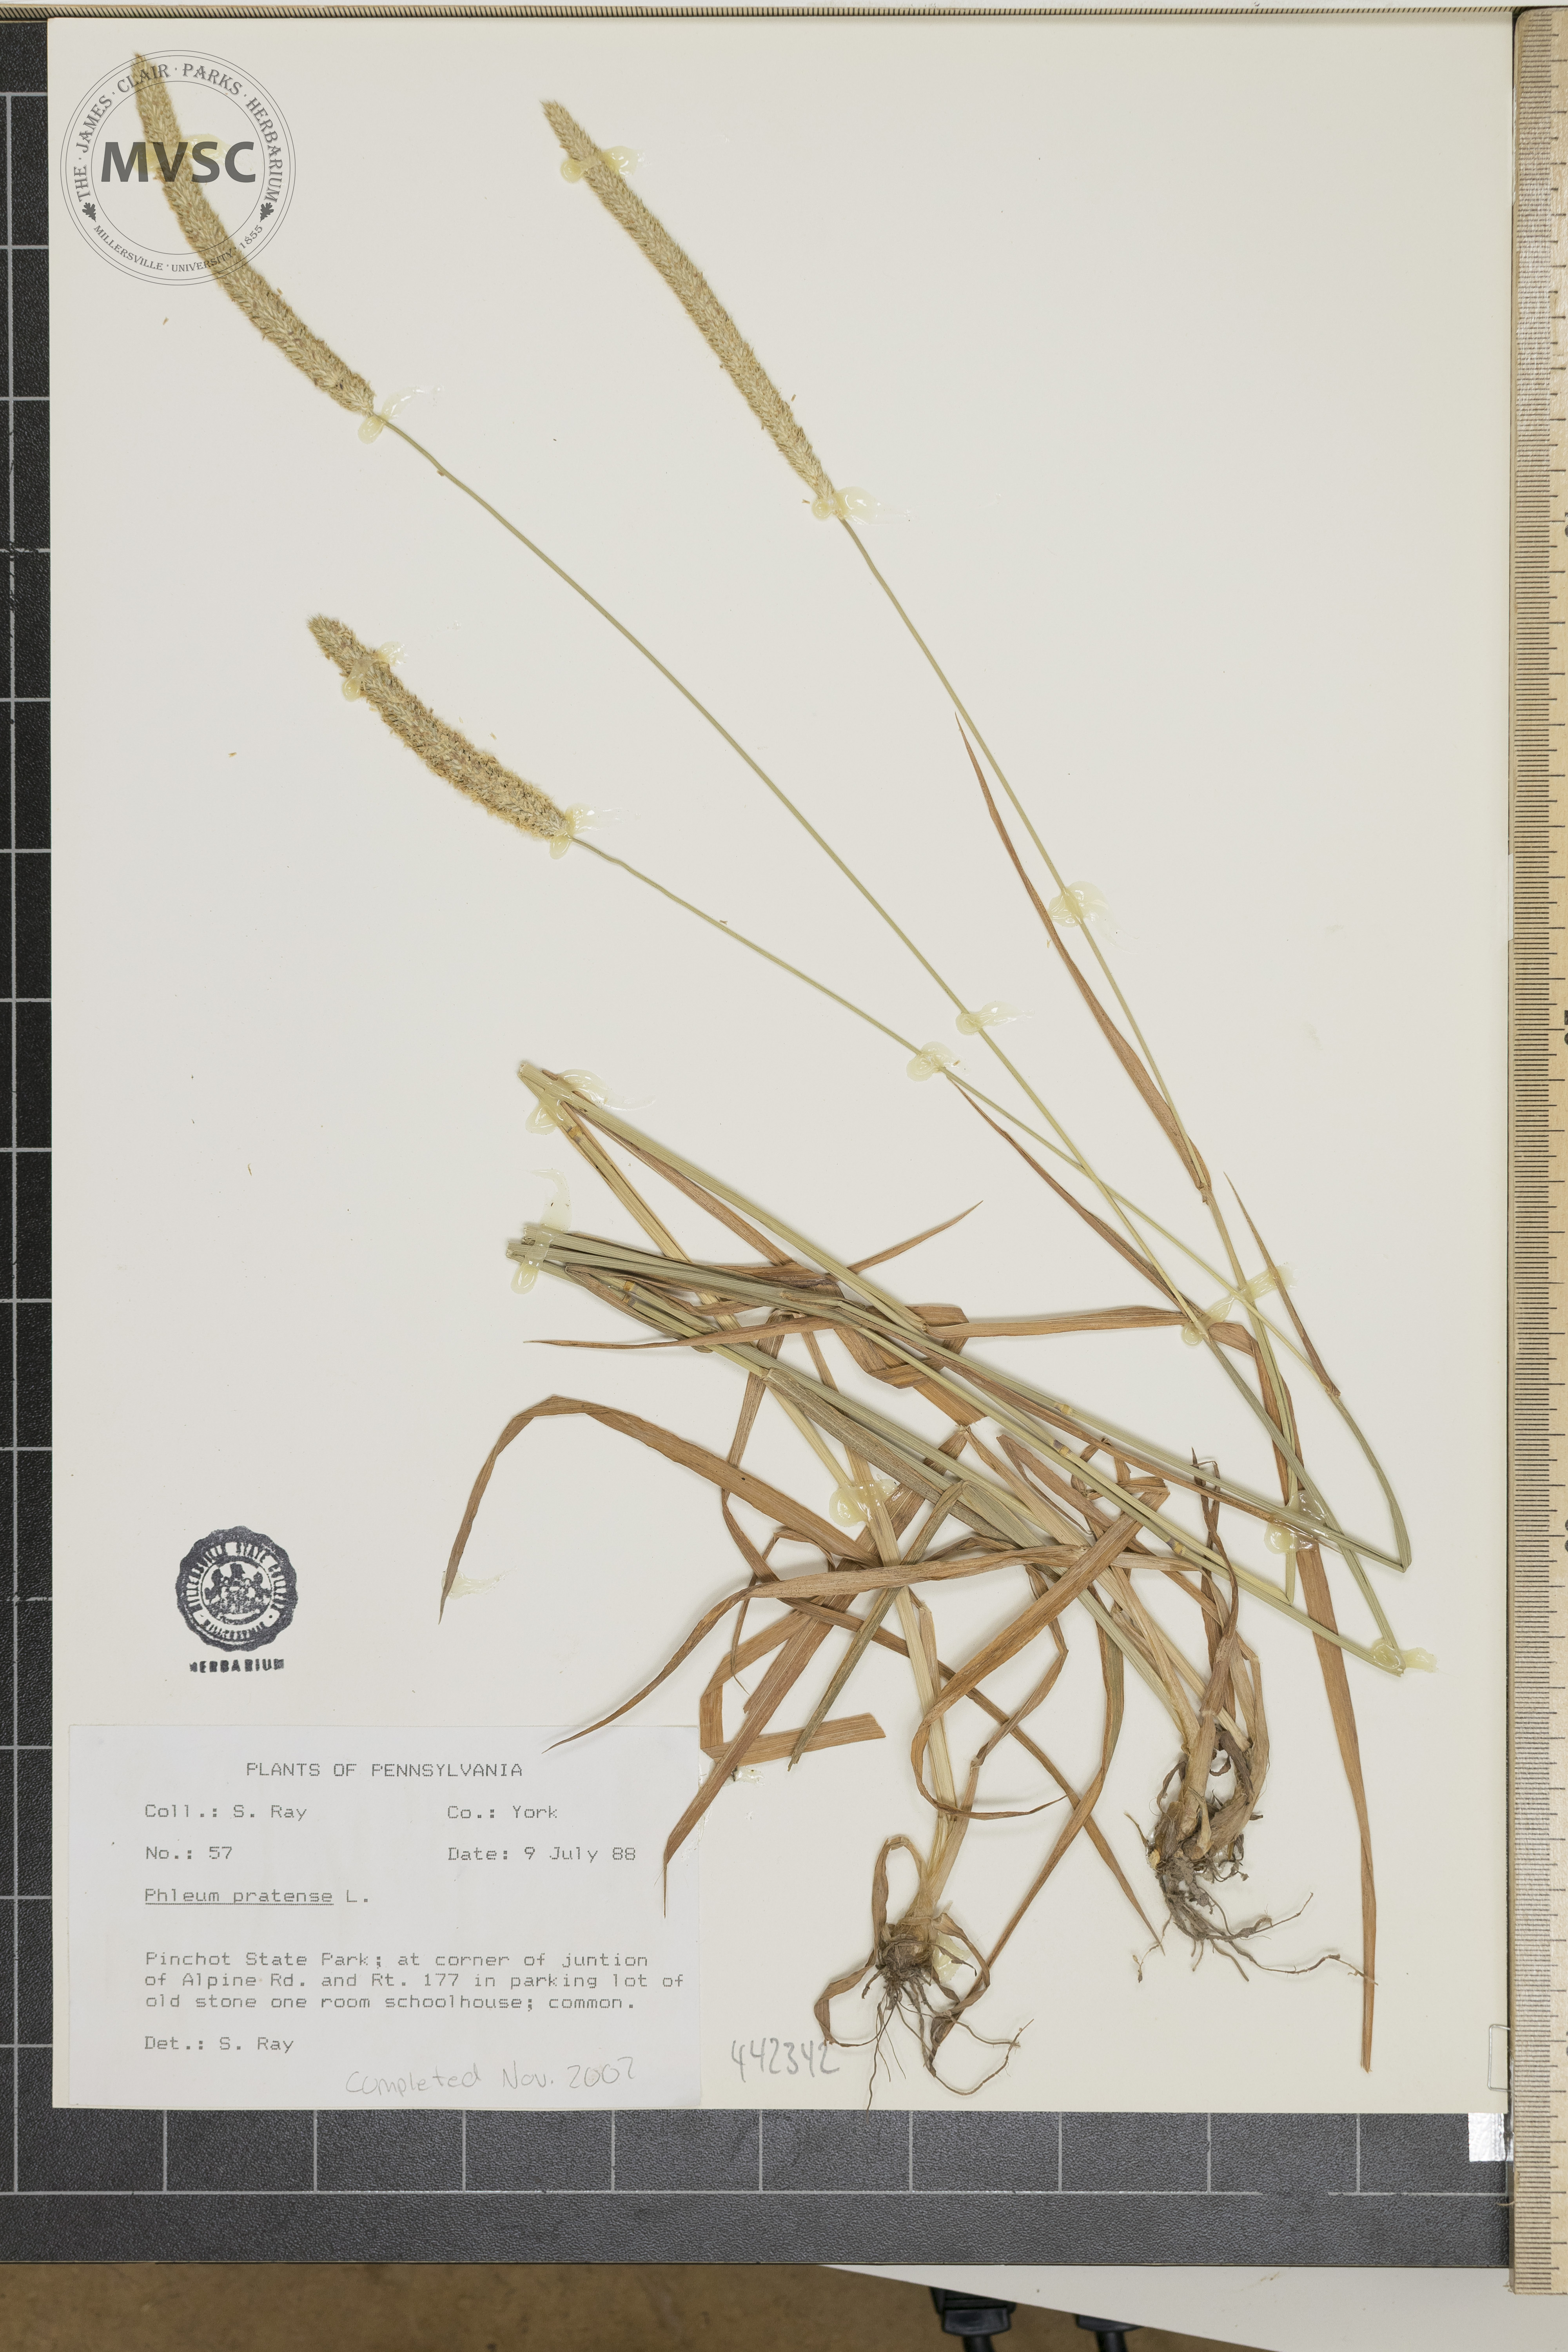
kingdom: Plantae
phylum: Tracheophyta
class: Liliopsida
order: Poales
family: Poaceae
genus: Phleum
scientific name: Phleum pratense
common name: Timothy grass
